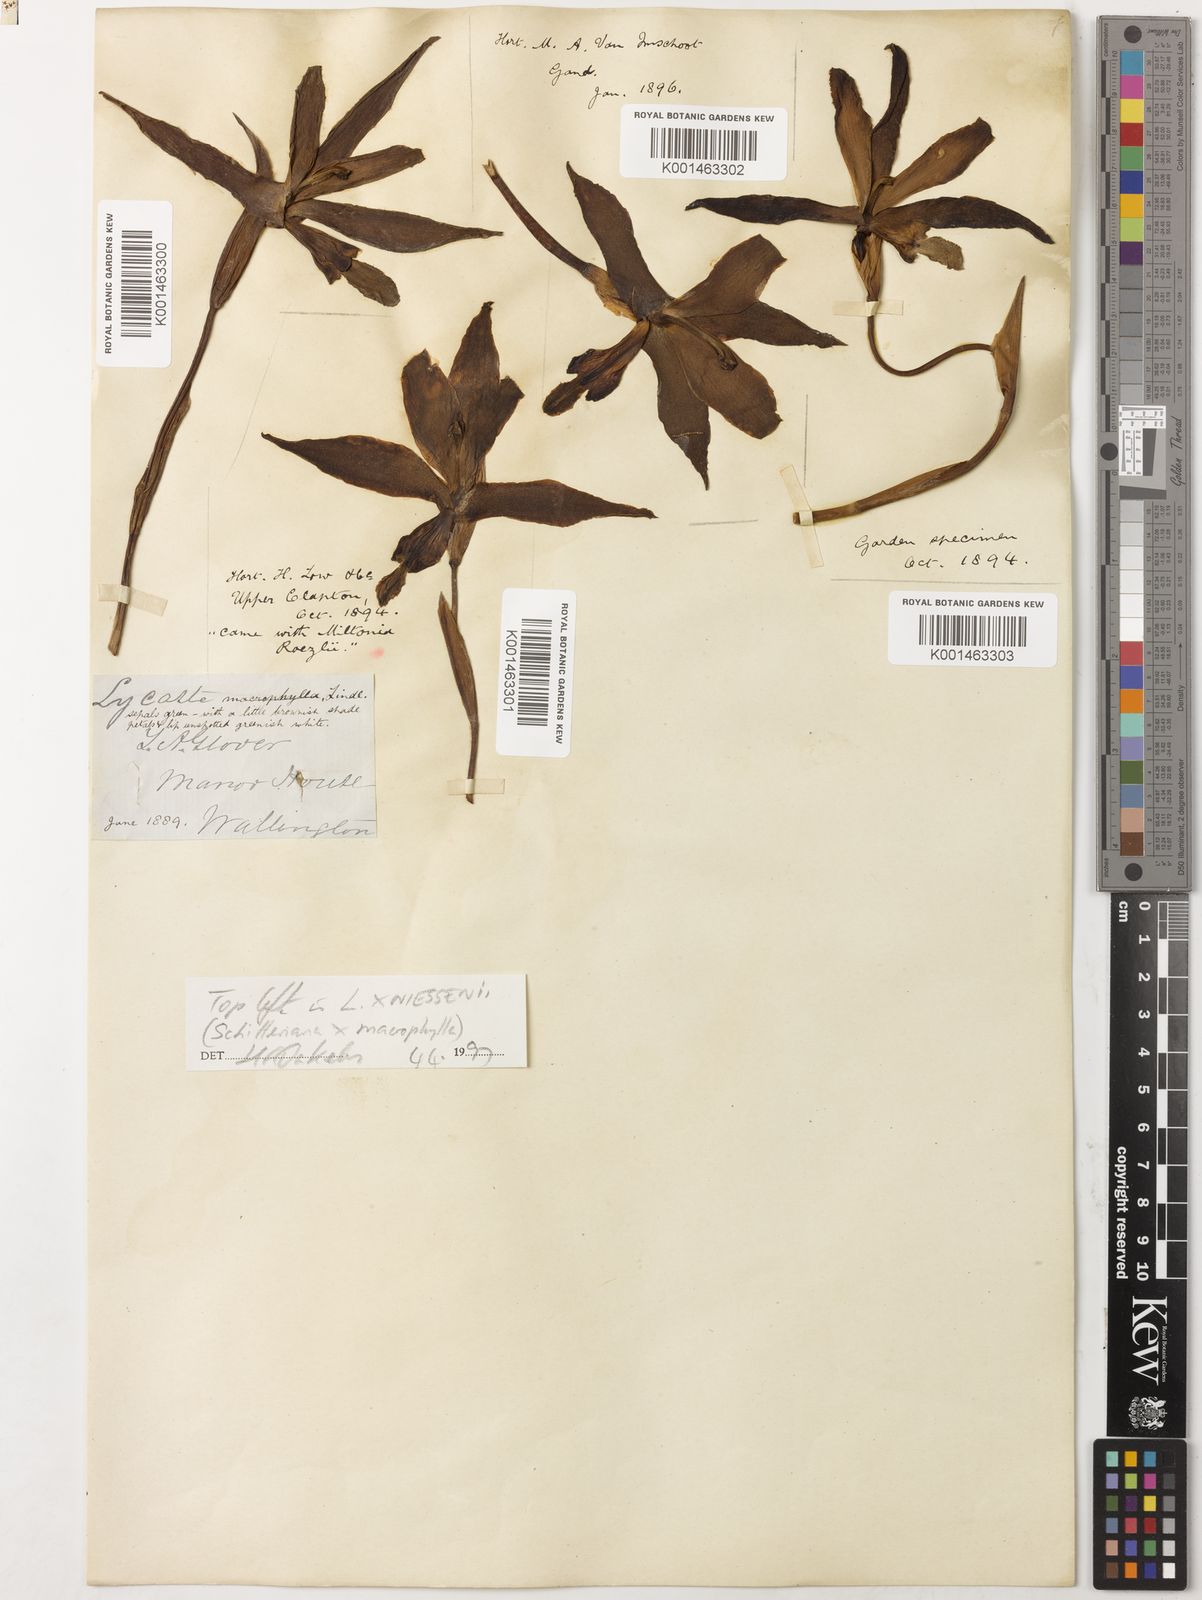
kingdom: Plantae
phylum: Tracheophyta
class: Liliopsida
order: Asparagales
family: Orchidaceae
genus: Lycaste
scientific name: Lycaste macrophylla
